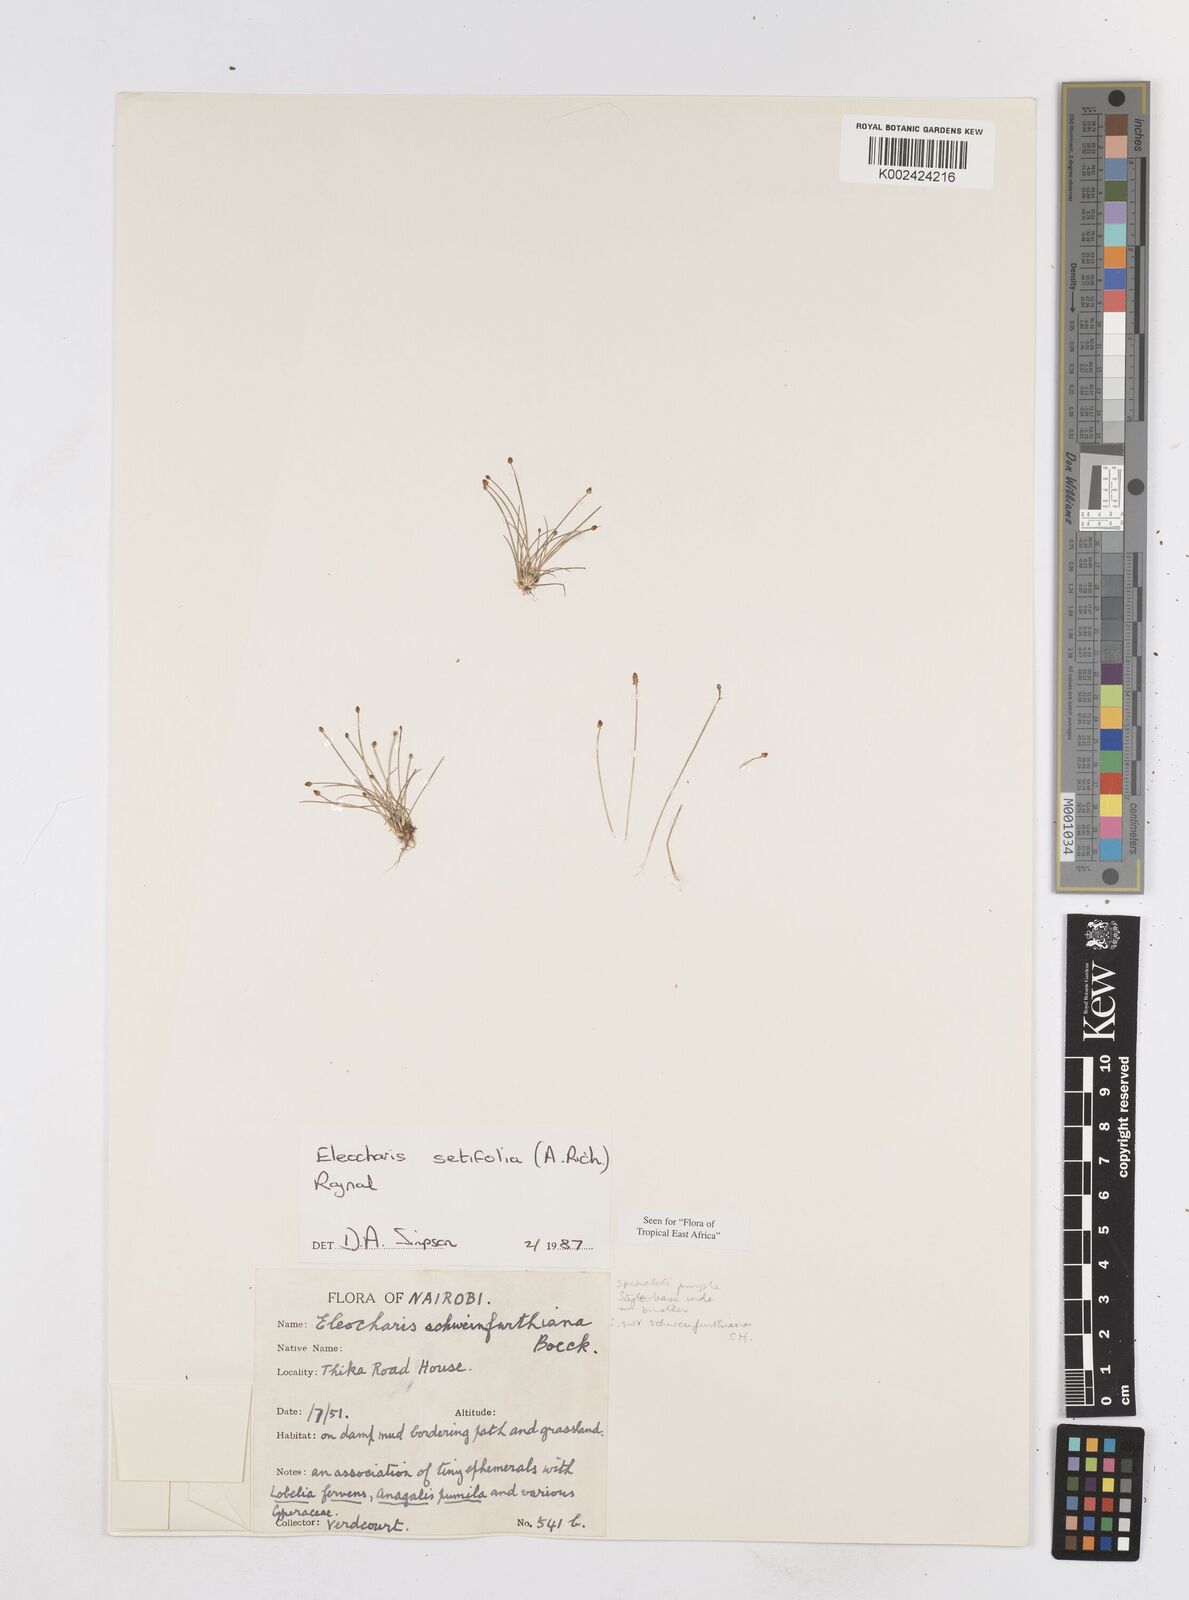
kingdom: Plantae
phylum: Tracheophyta
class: Liliopsida
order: Poales
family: Cyperaceae
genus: Eleocharis
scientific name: Eleocharis setifolia
